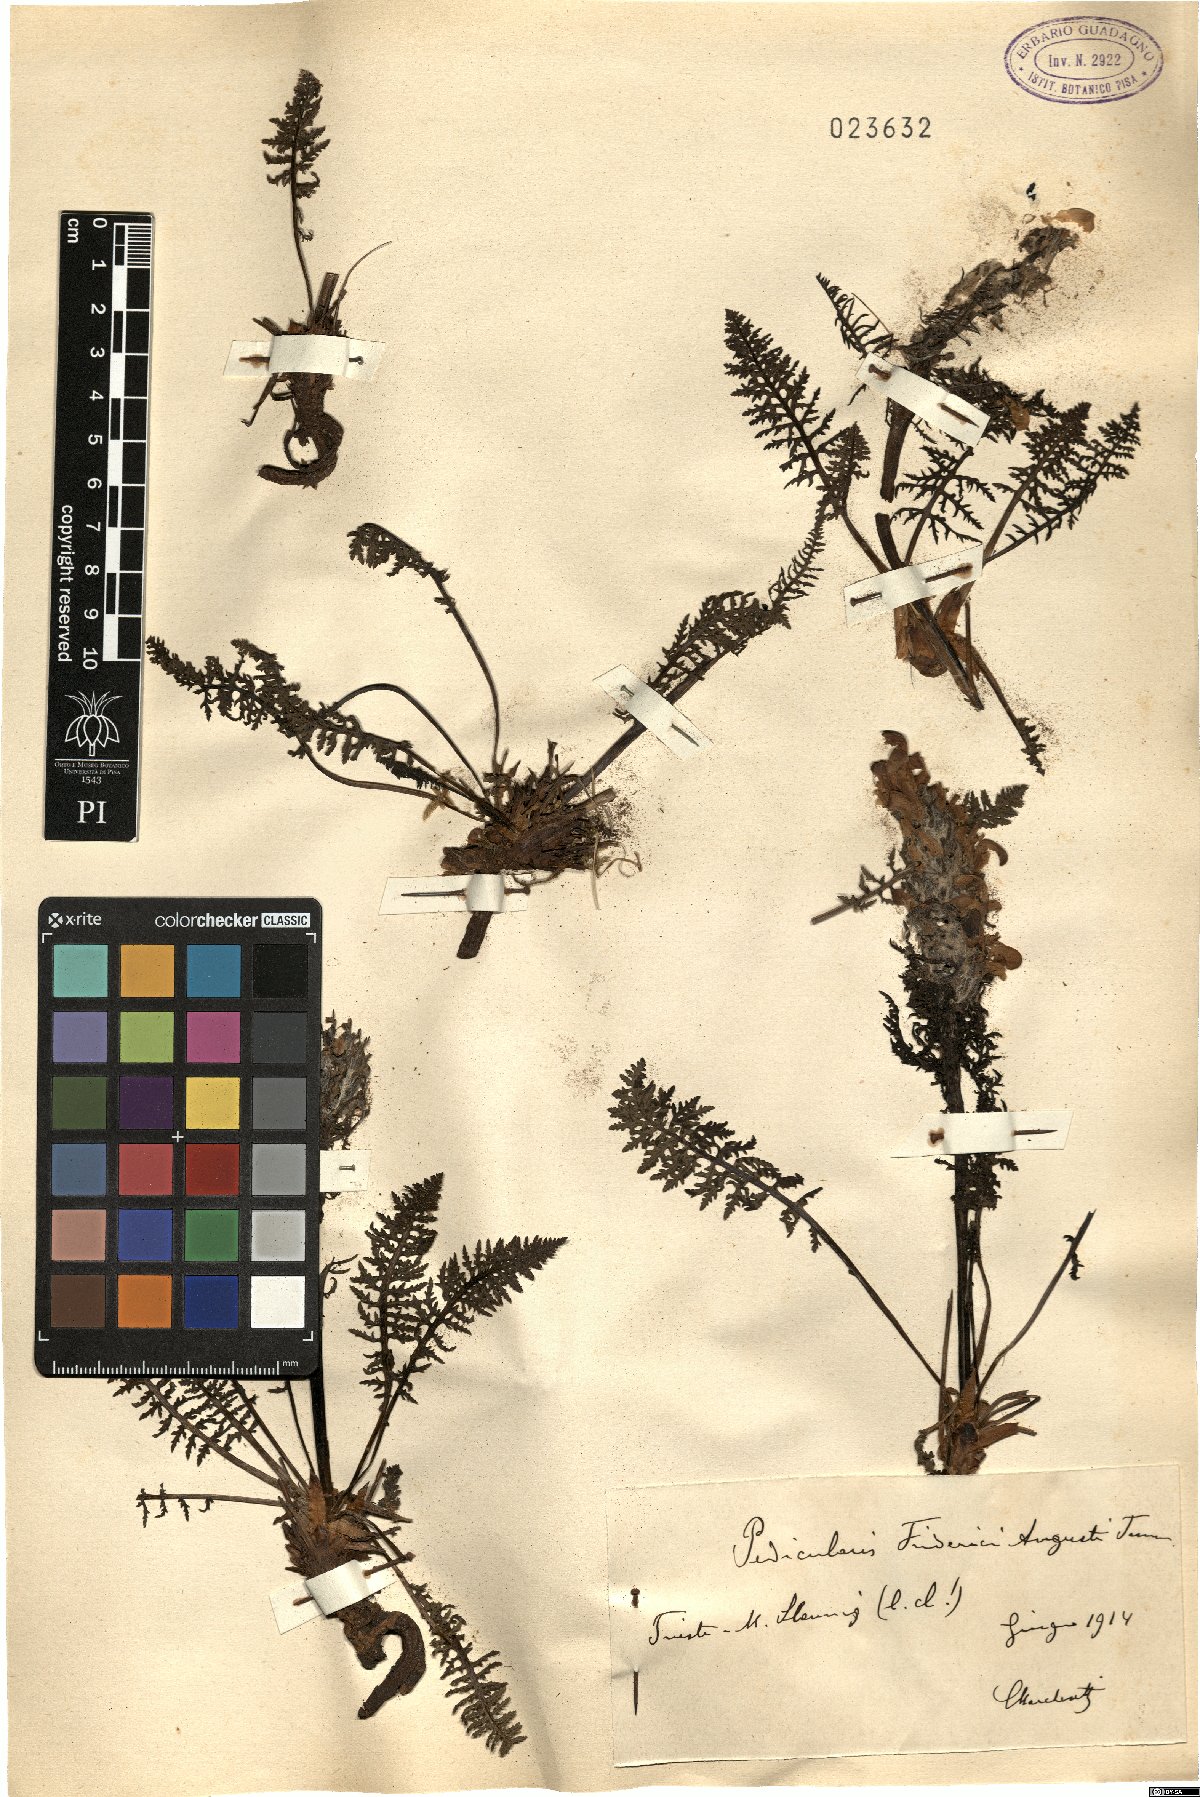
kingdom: Plantae
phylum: Tracheophyta
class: Magnoliopsida
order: Lamiales
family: Orobanchaceae
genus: Pedicularis
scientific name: Pedicularis friderici-augusti
